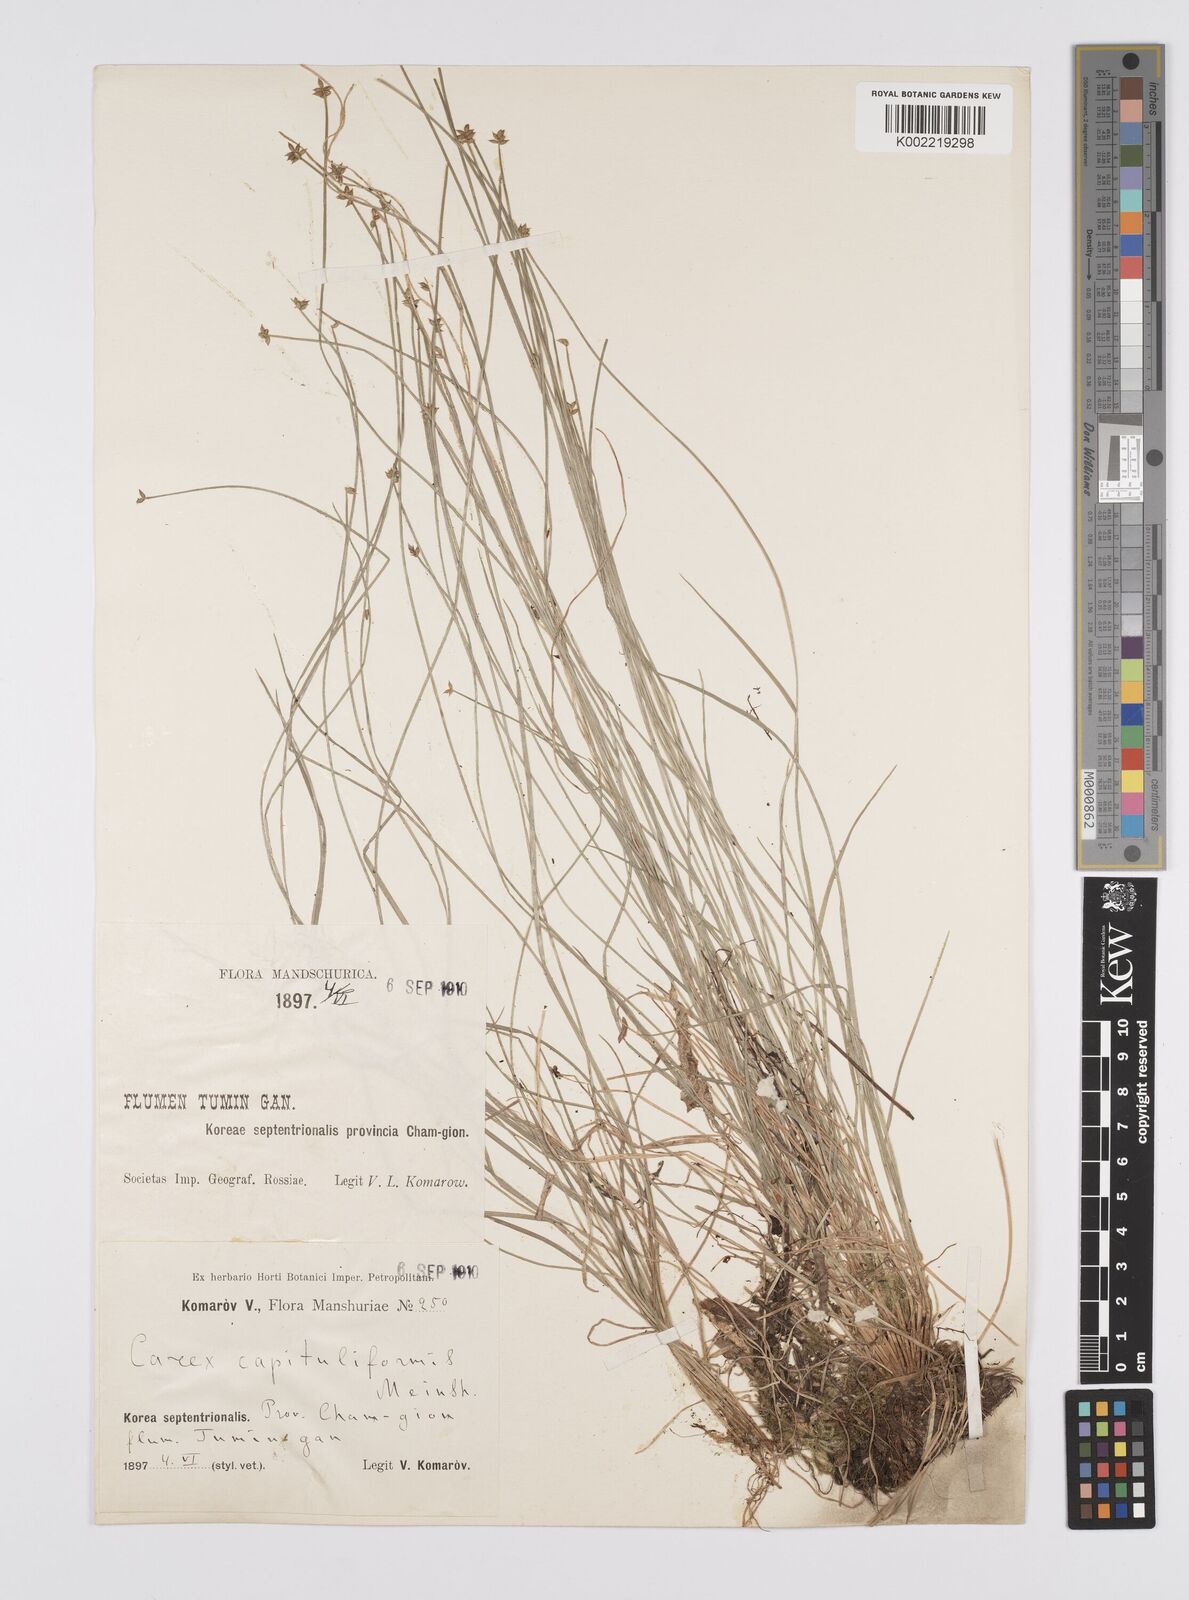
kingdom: Plantae
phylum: Tracheophyta
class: Liliopsida
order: Poales
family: Cyperaceae
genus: Carex
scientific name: Carex capillacea
